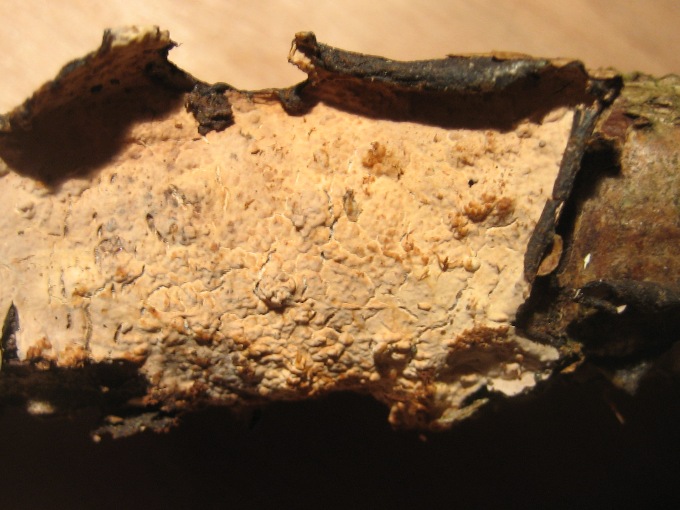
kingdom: Fungi
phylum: Basidiomycota
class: Agaricomycetes
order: Russulales
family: Peniophoraceae
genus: Peniophora
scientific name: Peniophora quercina
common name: ege-voksskind
